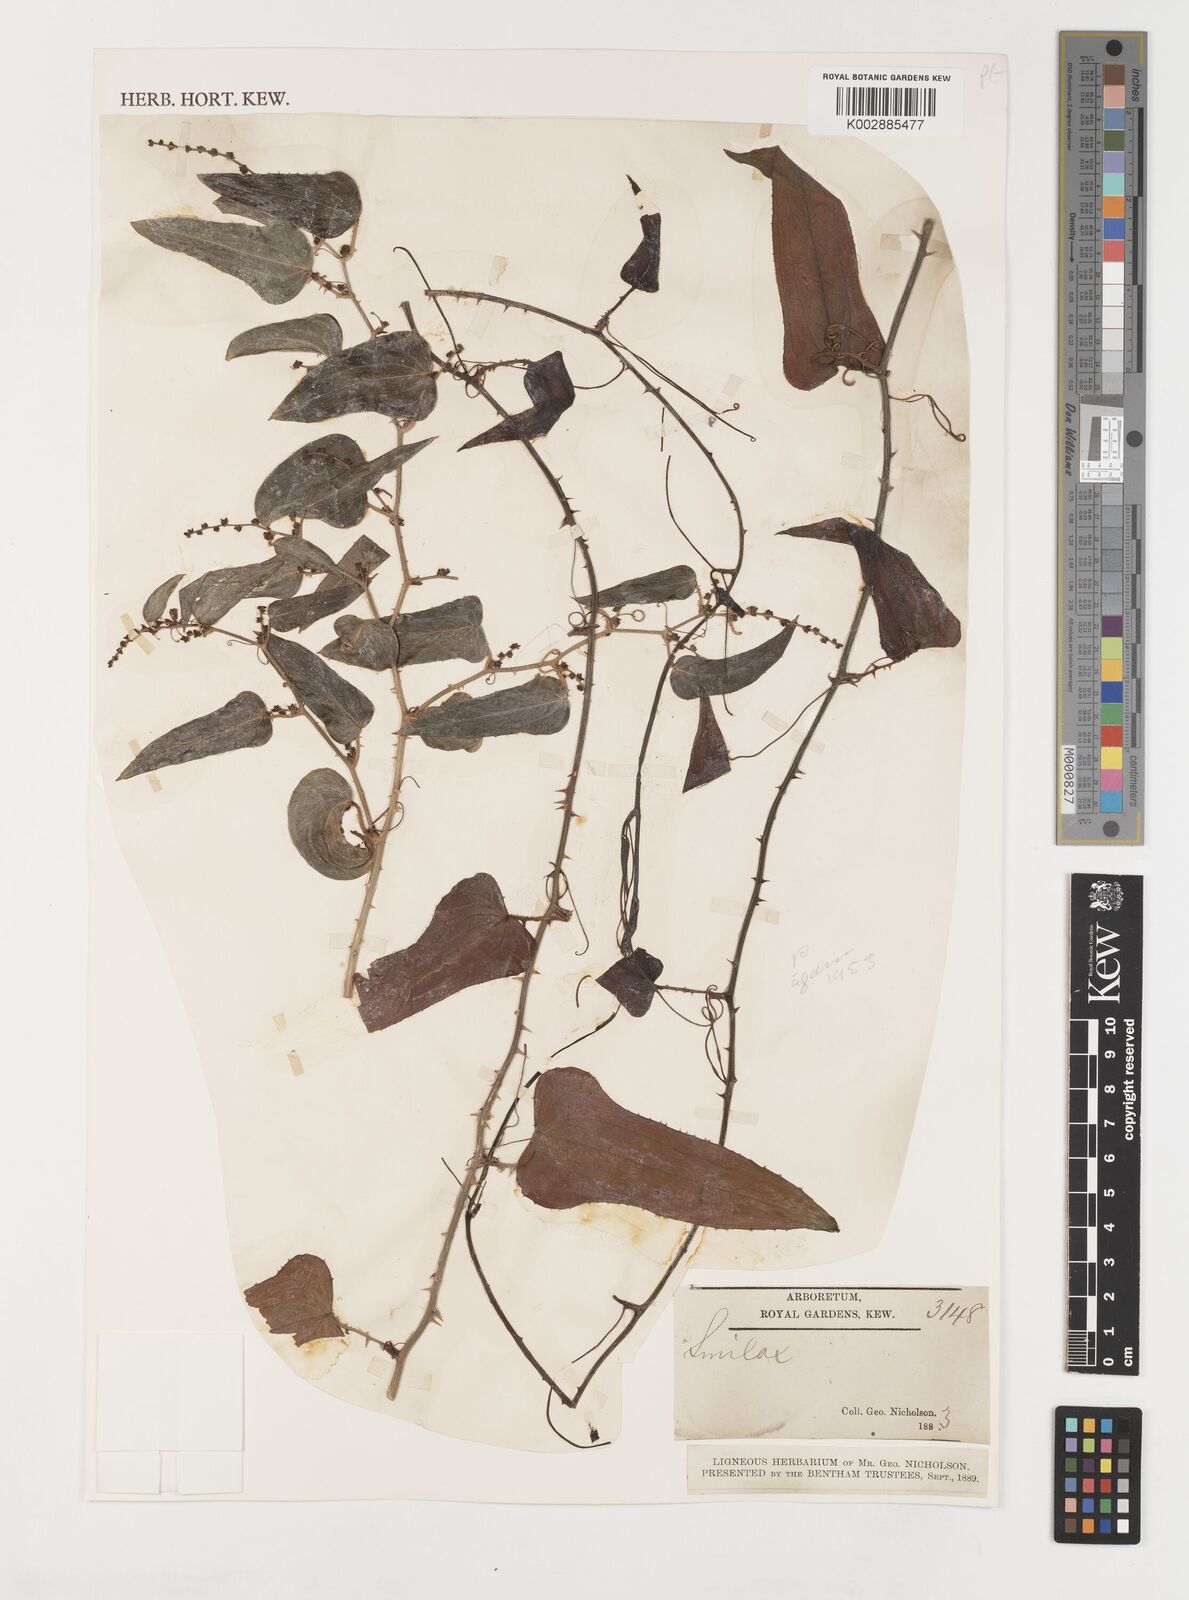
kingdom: Plantae
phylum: Tracheophyta
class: Liliopsida
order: Liliales
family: Smilacaceae
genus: Smilax
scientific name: Smilax
